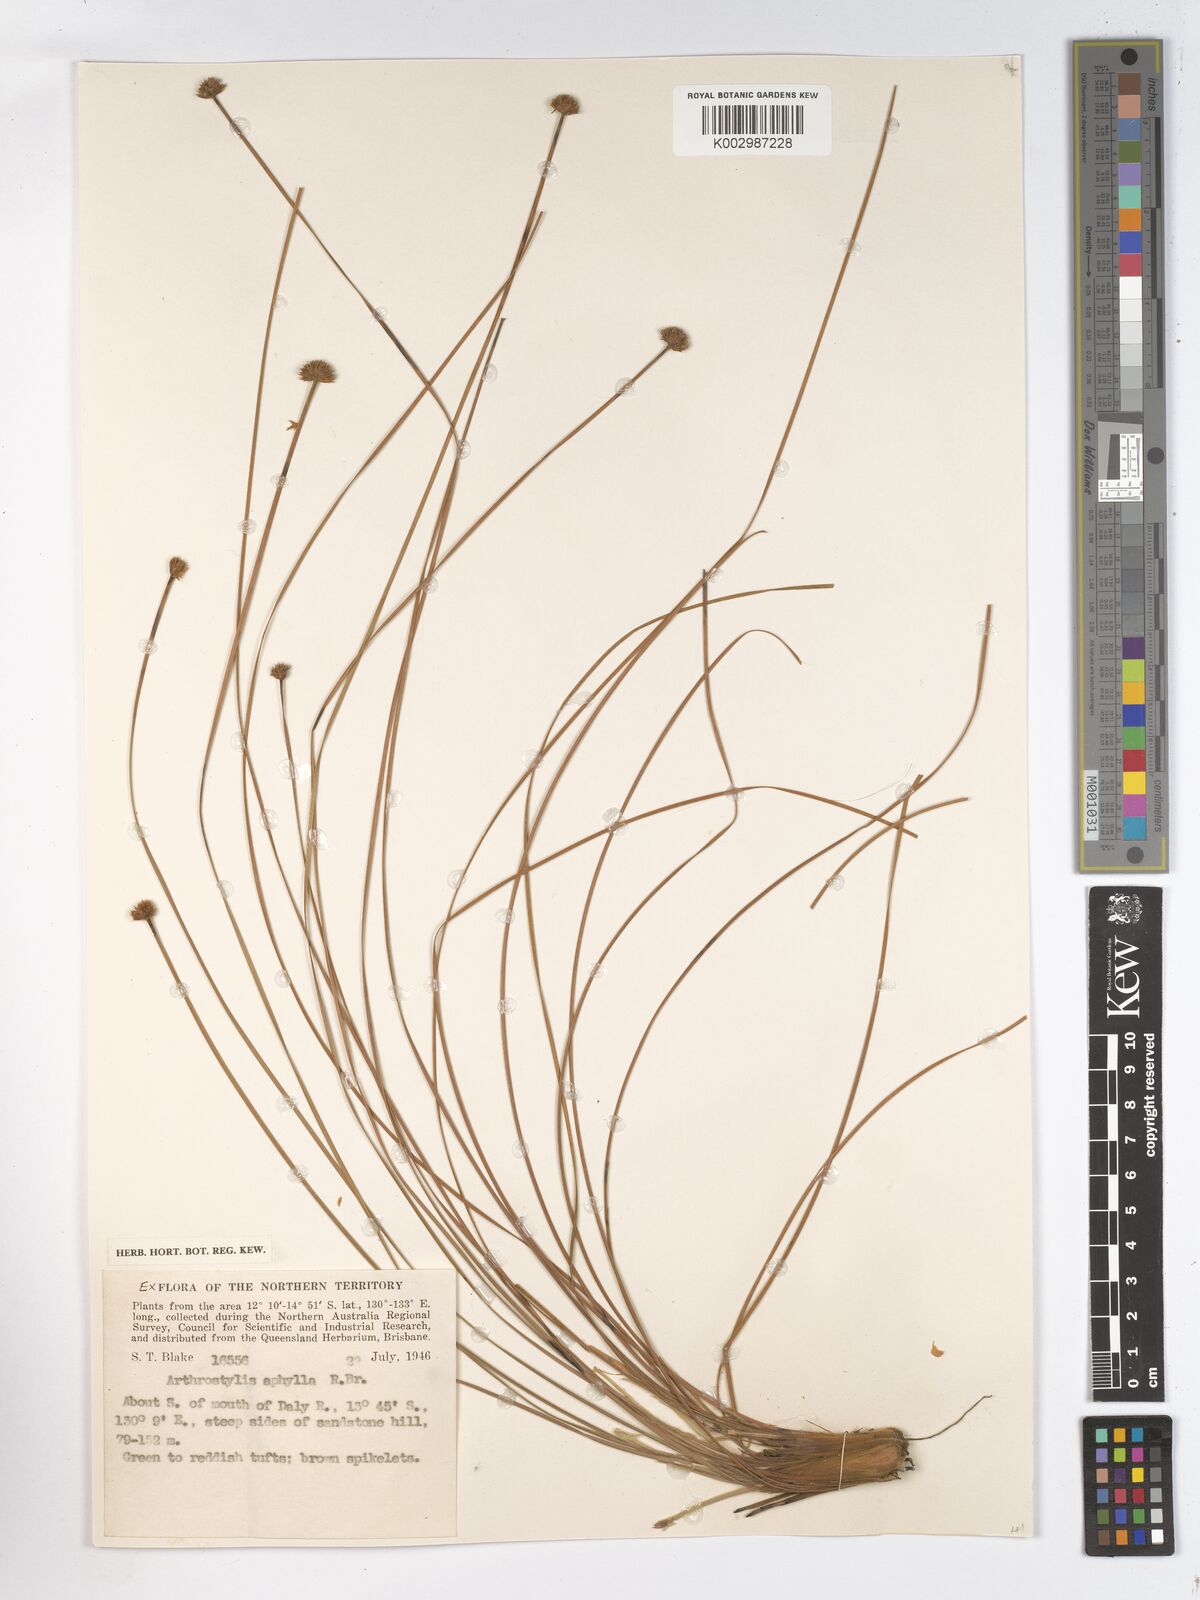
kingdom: Plantae
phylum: Tracheophyta
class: Liliopsida
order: Poales
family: Cyperaceae
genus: Arthrostylis
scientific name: Arthrostylis aphylla
